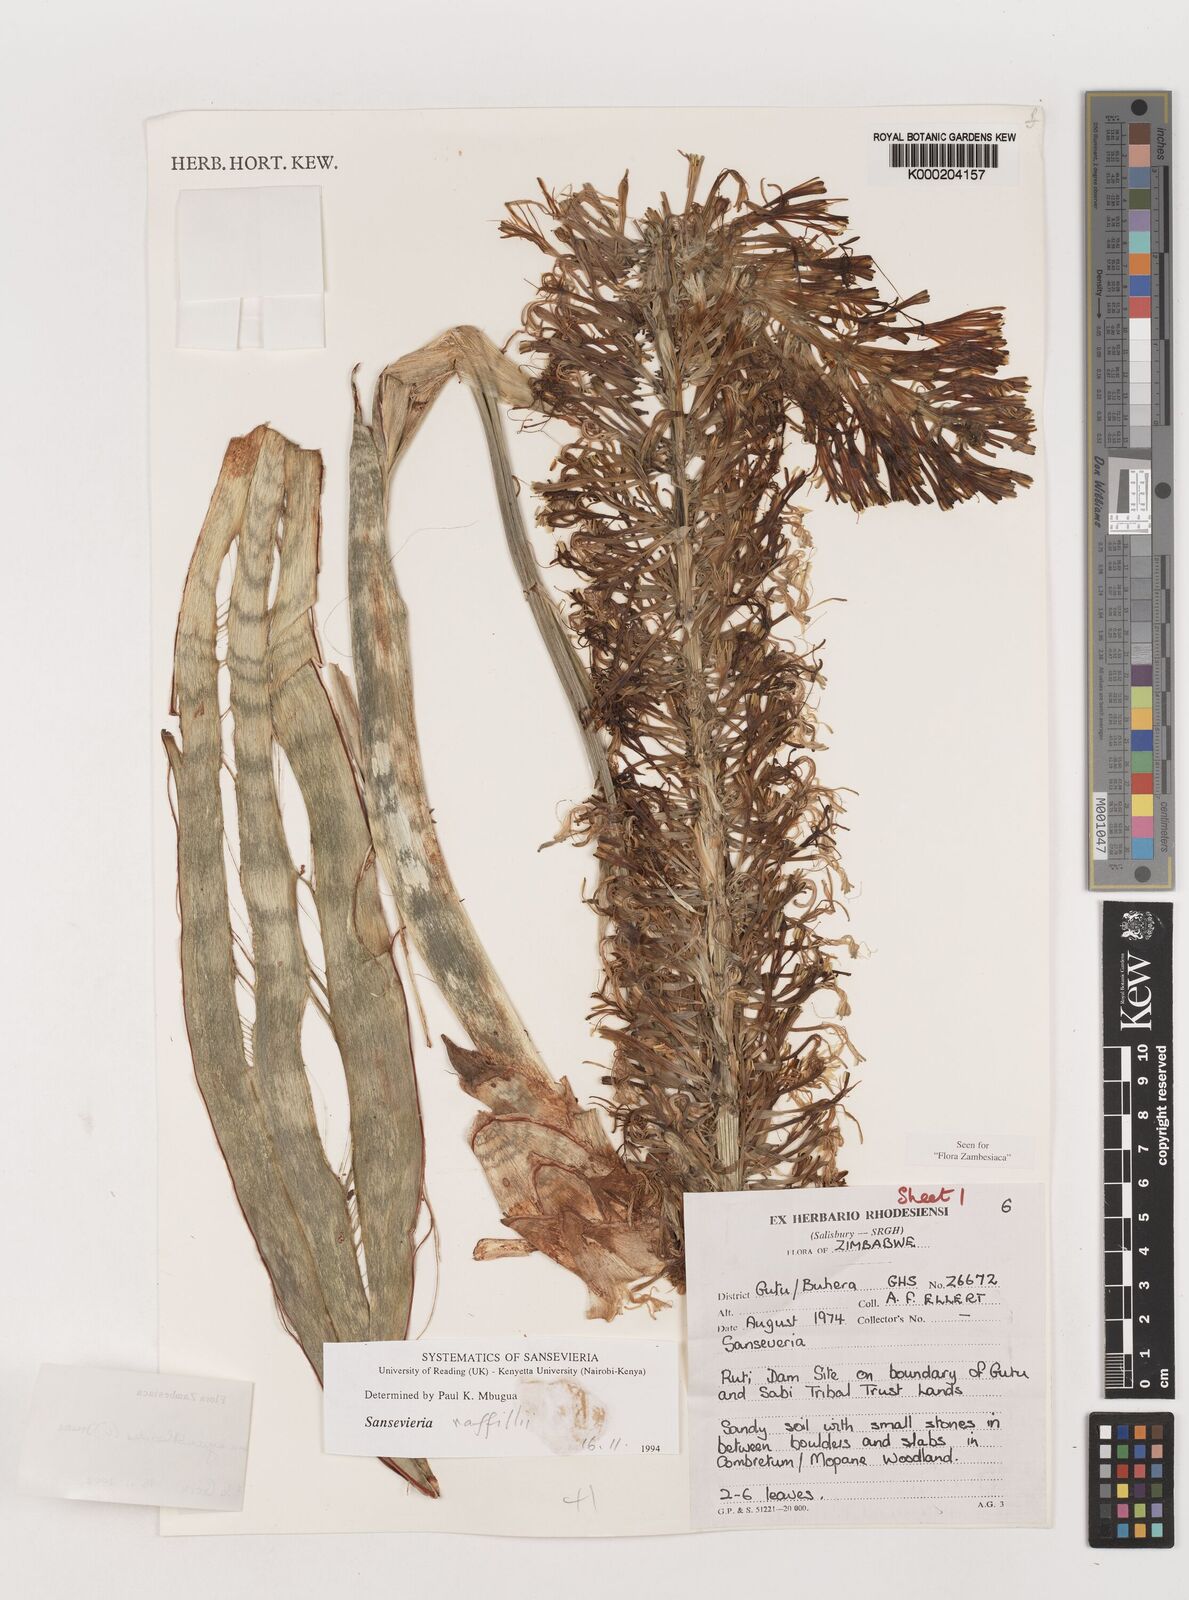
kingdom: Plantae
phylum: Tracheophyta
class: Liliopsida
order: Asparagales
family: Asparagaceae
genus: Dracaena
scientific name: Dracaena hyacinthoides
